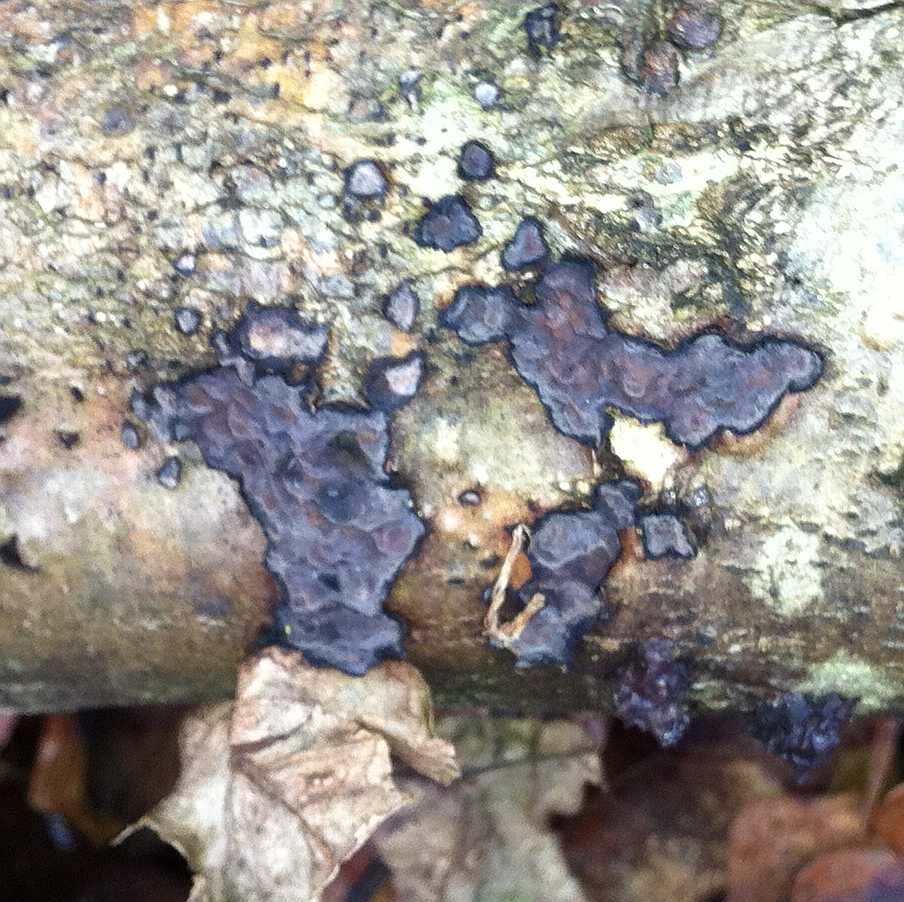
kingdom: Fungi
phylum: Basidiomycota
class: Agaricomycetes
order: Russulales
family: Peniophoraceae
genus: Peniophora
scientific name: Peniophora quercina
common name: ege-voksskind
